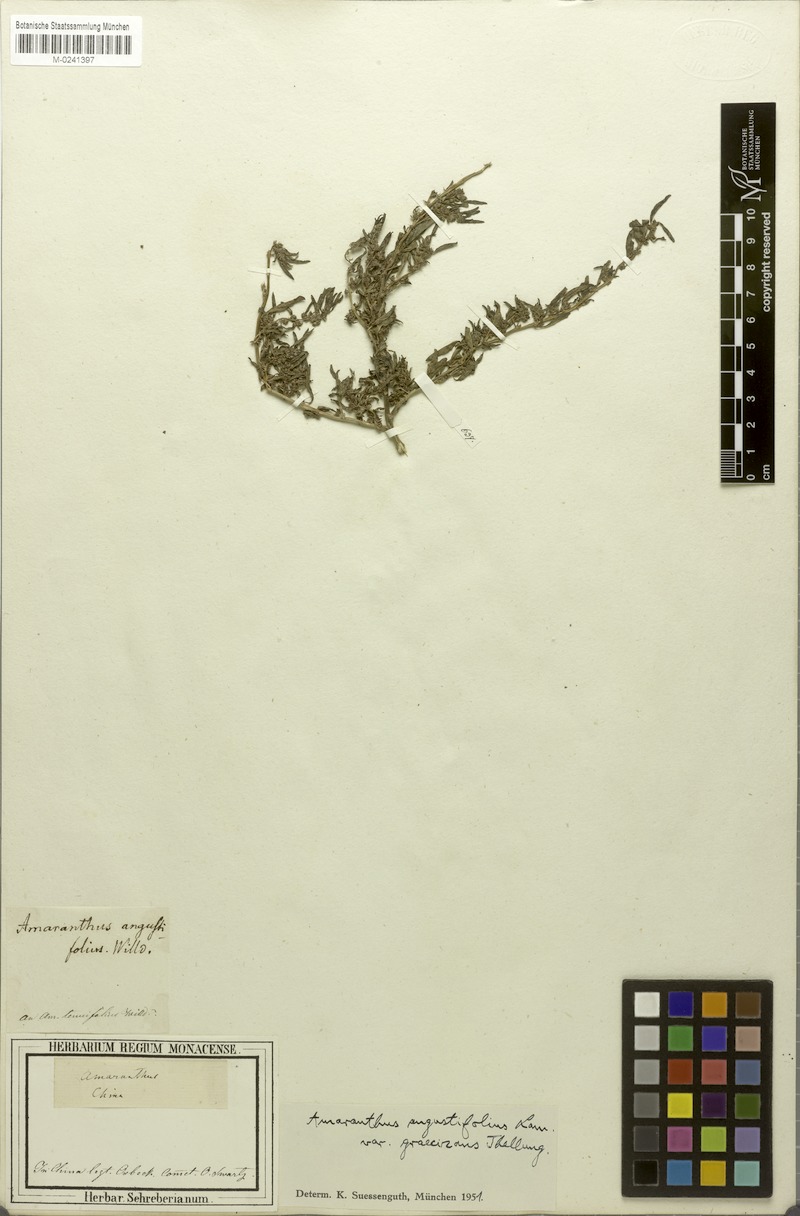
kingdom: Plantae
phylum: Tracheophyta
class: Magnoliopsida
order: Caryophyllales
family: Amaranthaceae
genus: Amaranthus
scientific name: Amaranthus graecizans
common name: Mediterranean amaranth
